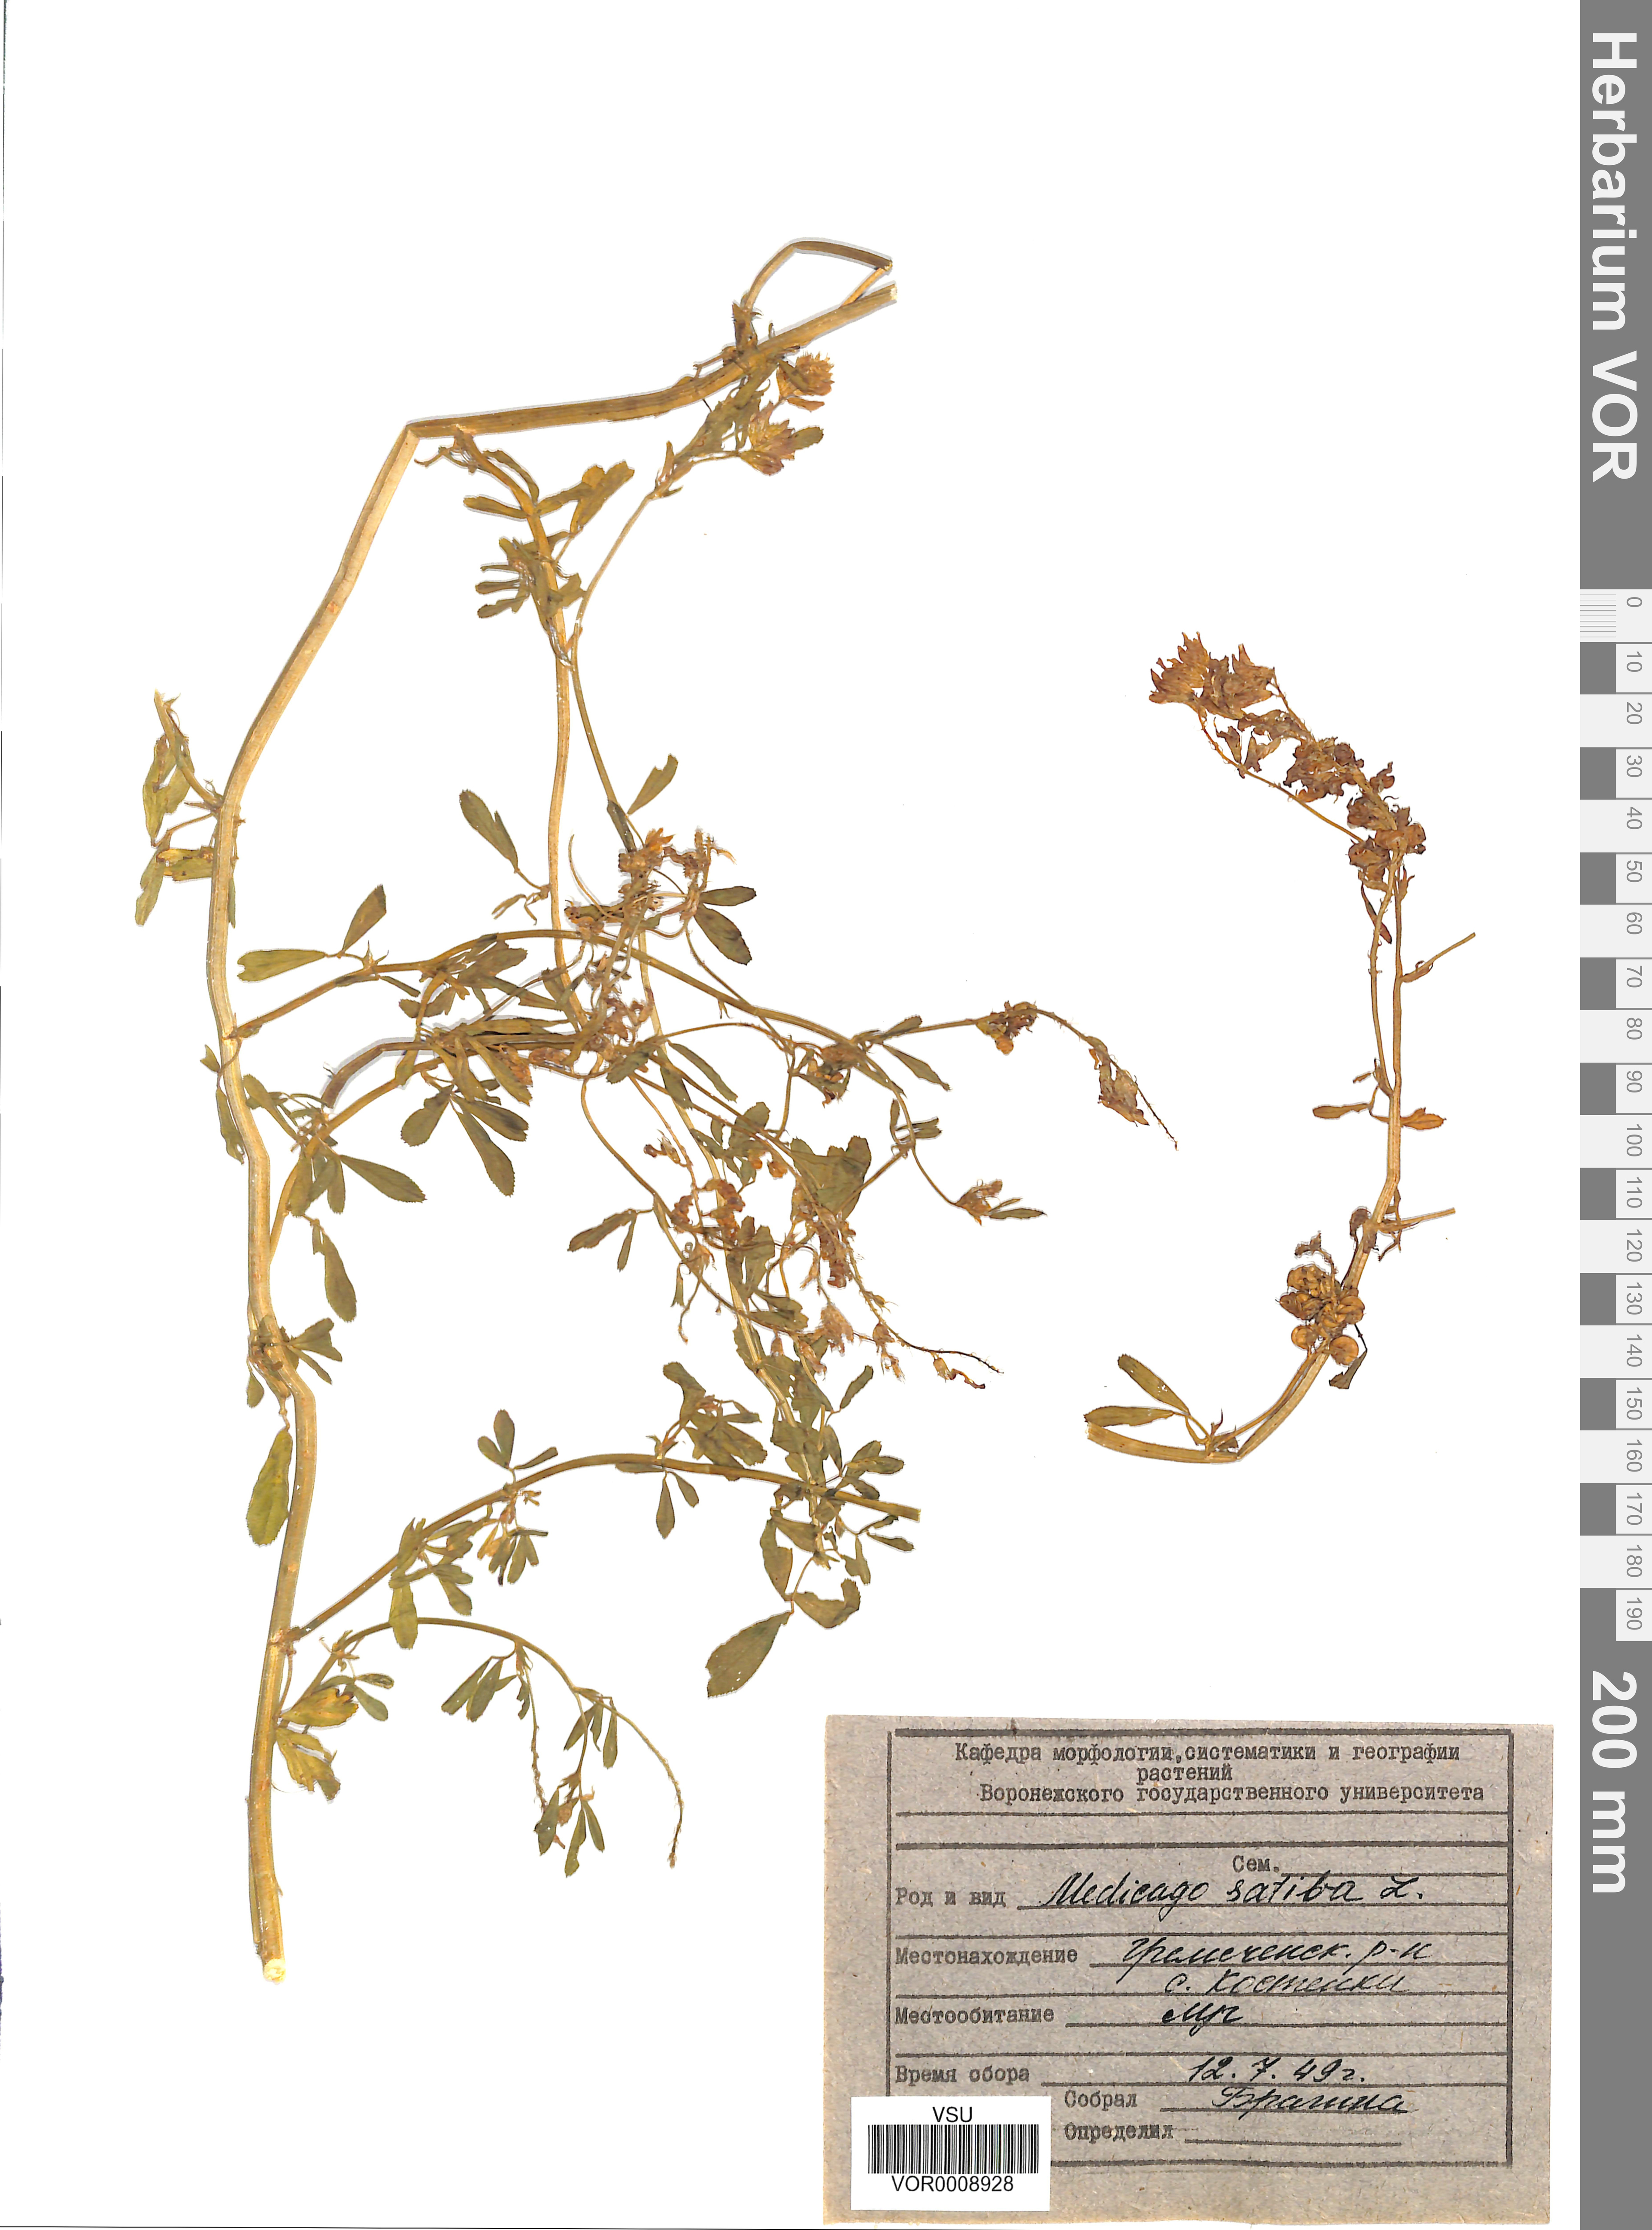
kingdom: Plantae
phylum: Tracheophyta
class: Magnoliopsida
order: Fabales
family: Fabaceae
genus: Medicago
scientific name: Medicago sativa
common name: Alfalfa
